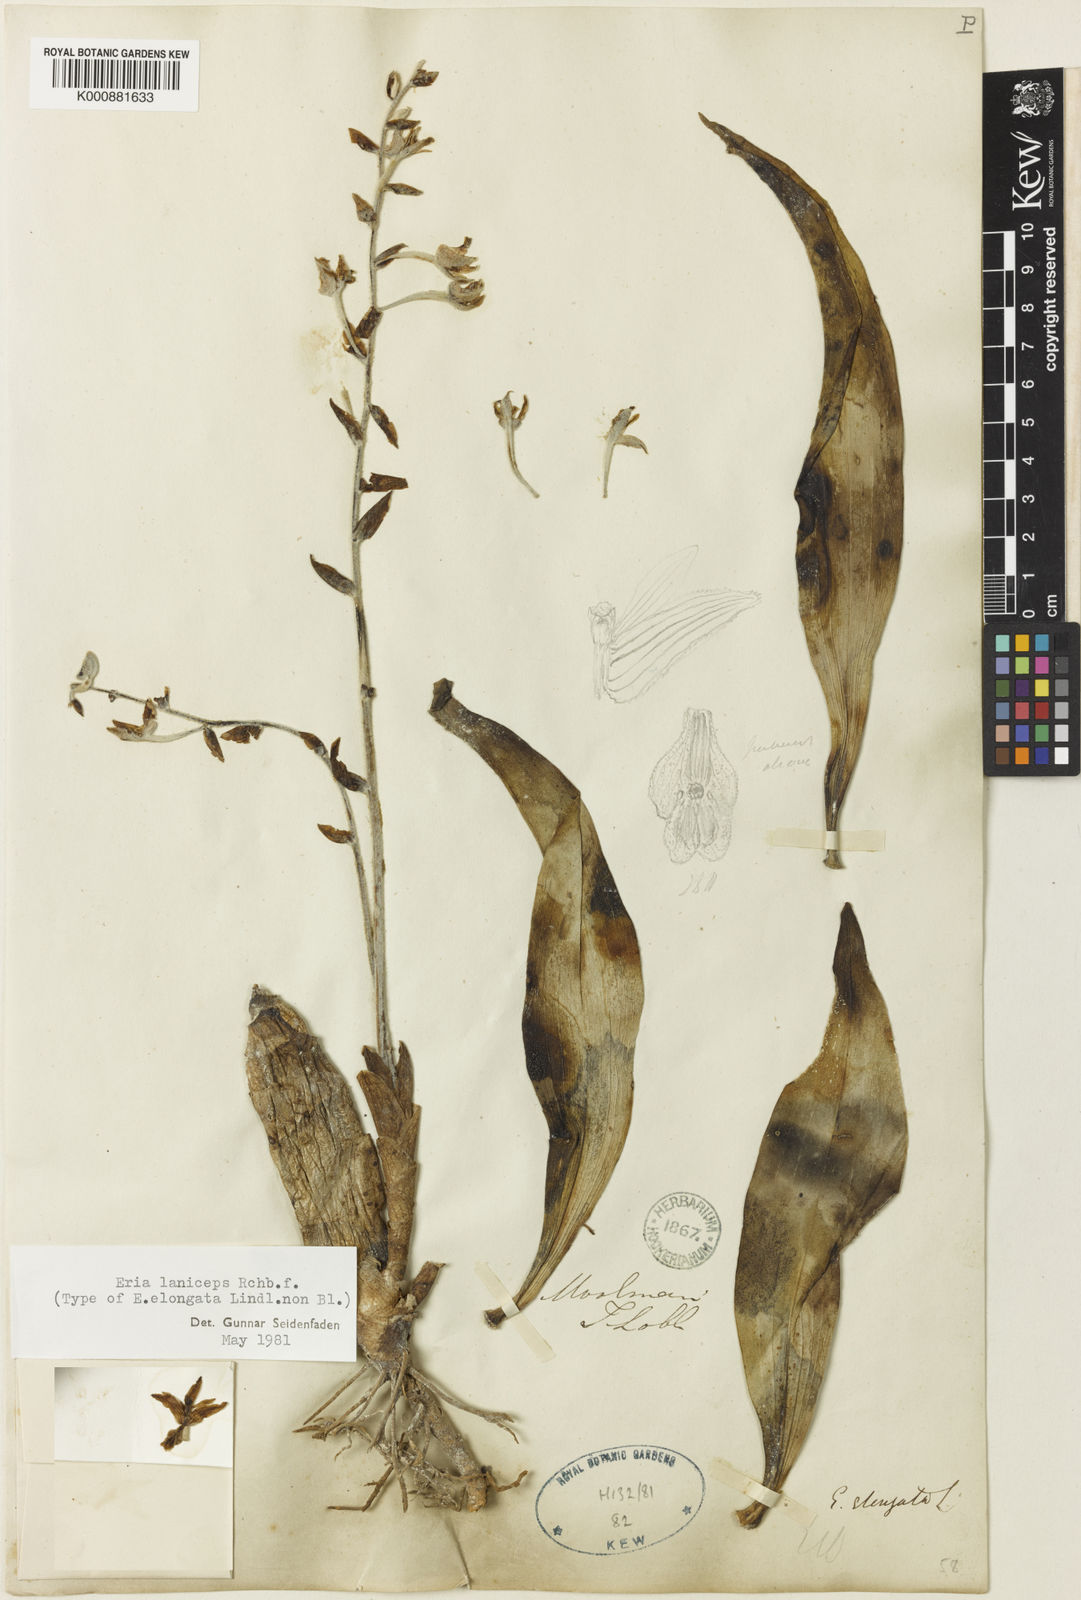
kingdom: Plantae
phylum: Tracheophyta
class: Liliopsida
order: Asparagales
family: Orchidaceae
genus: Dendrolirium
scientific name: Dendrolirium lasiopetalum
